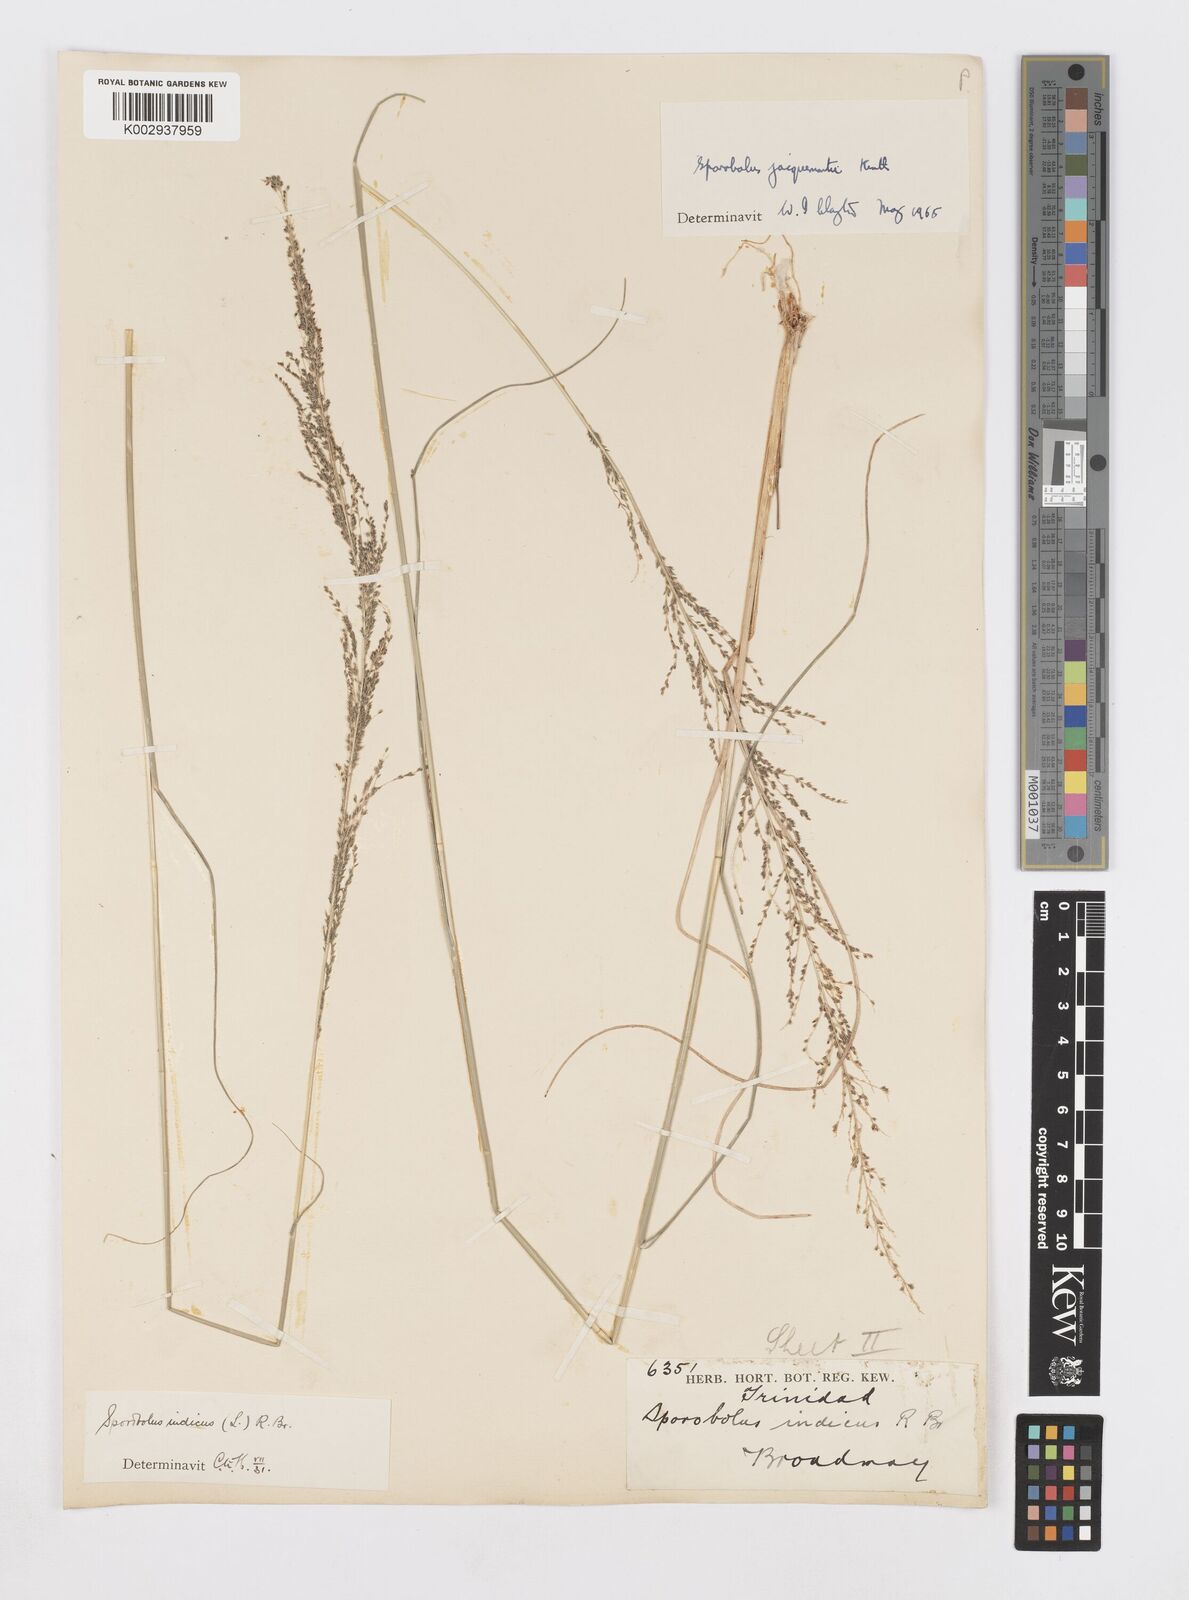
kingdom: Plantae
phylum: Tracheophyta
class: Liliopsida
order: Poales
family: Poaceae
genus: Sporobolus
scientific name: Sporobolus pyramidalis
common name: West indian dropseed
